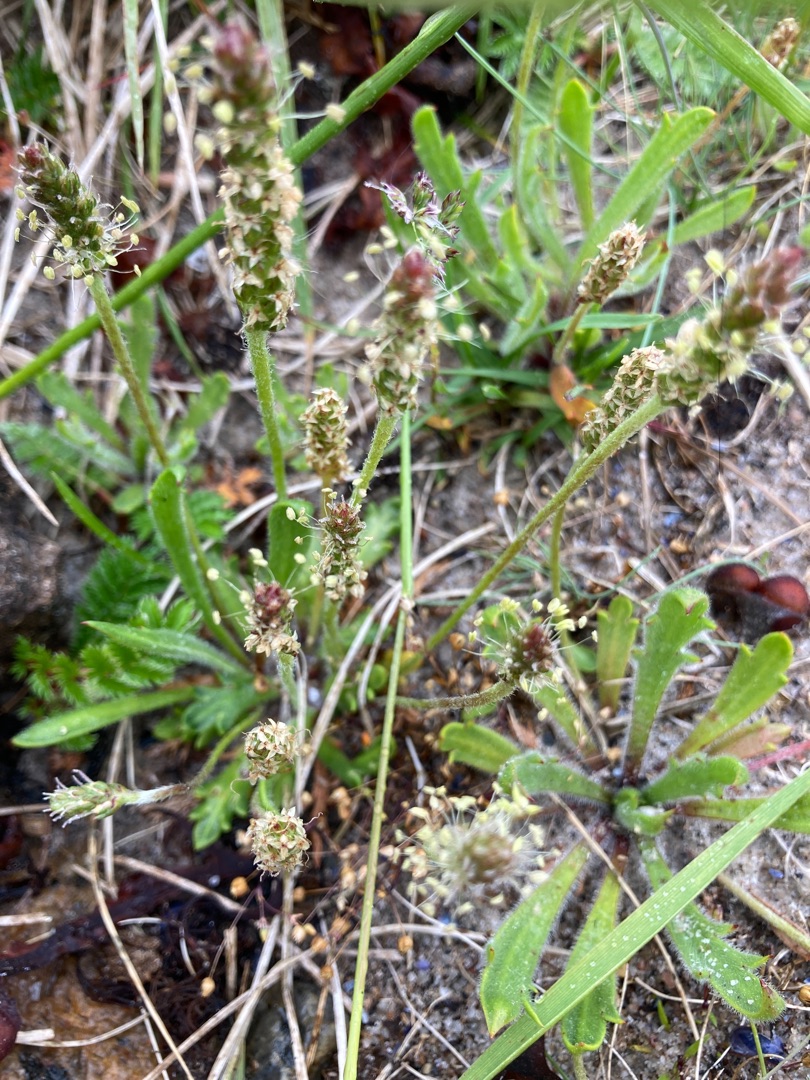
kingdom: Plantae
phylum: Tracheophyta
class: Magnoliopsida
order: Lamiales
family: Plantaginaceae
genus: Plantago
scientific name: Plantago coronopus
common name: Fliget vejbred
